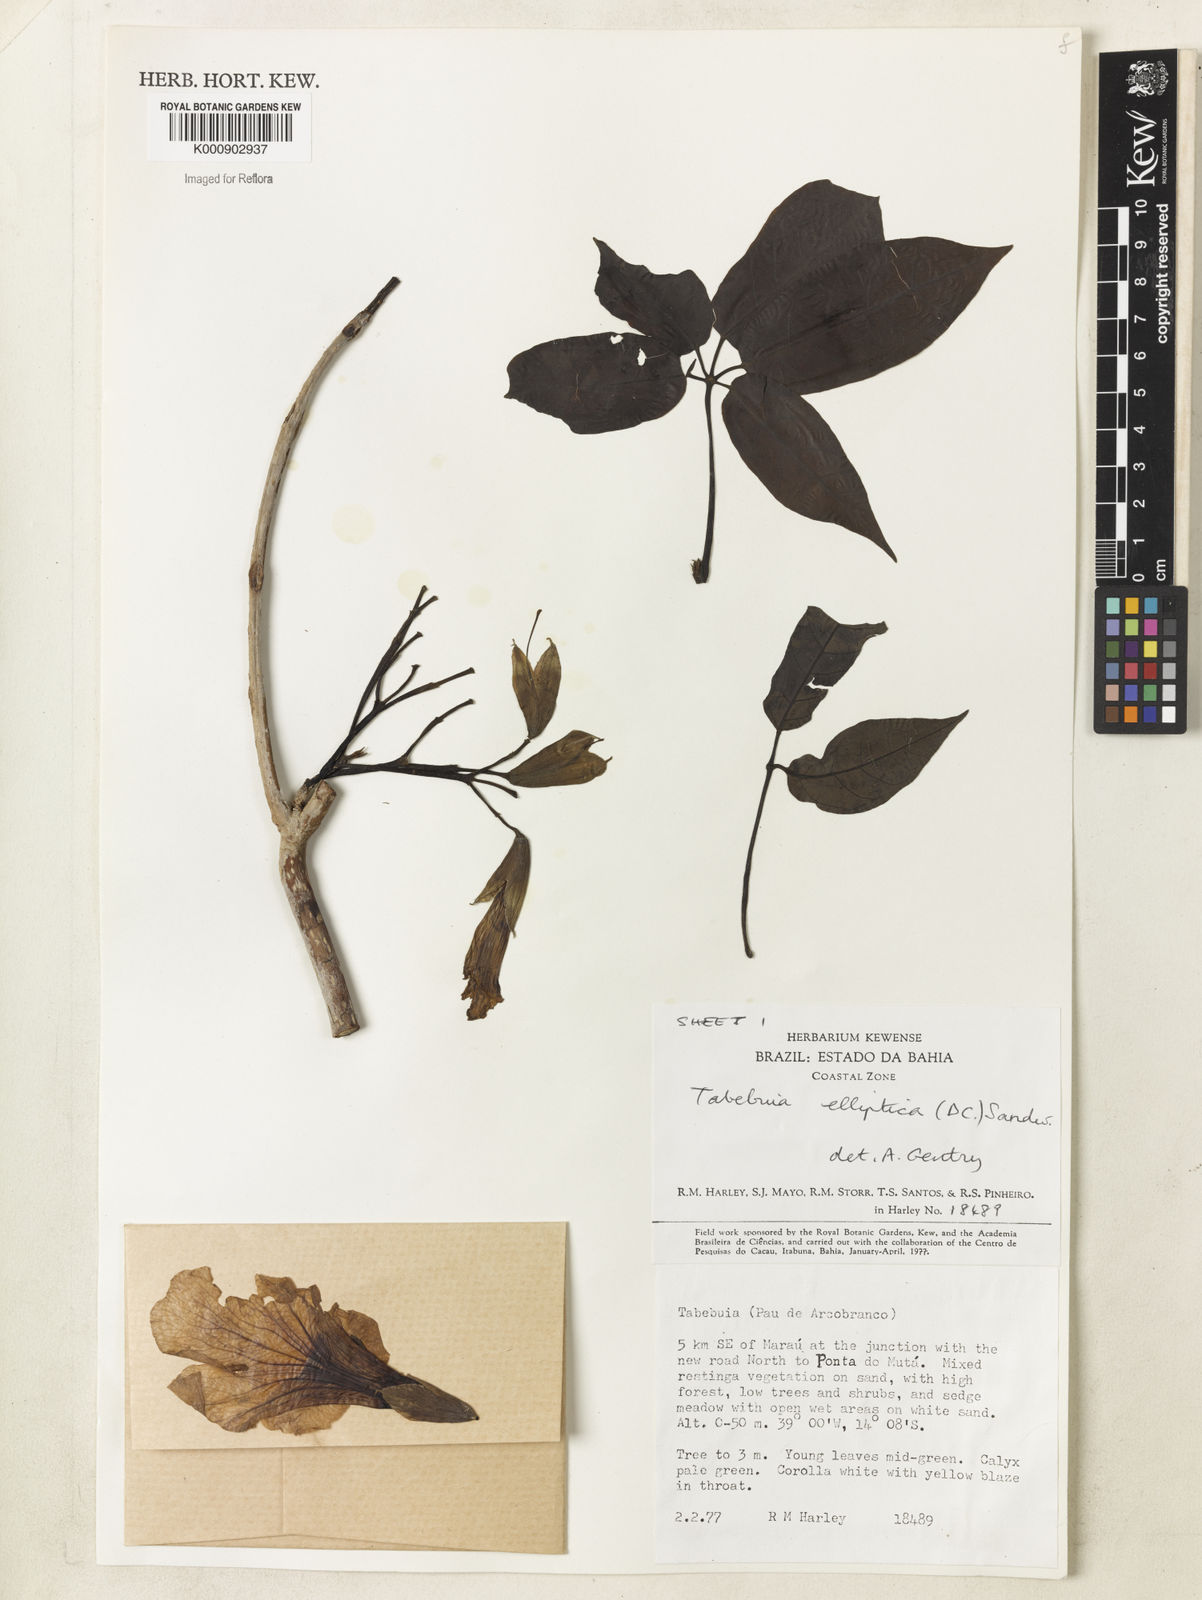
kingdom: Plantae
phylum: Tracheophyta
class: Magnoliopsida
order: Lamiales
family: Bignoniaceae
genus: Tabebuia
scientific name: Tabebuia elliptica
